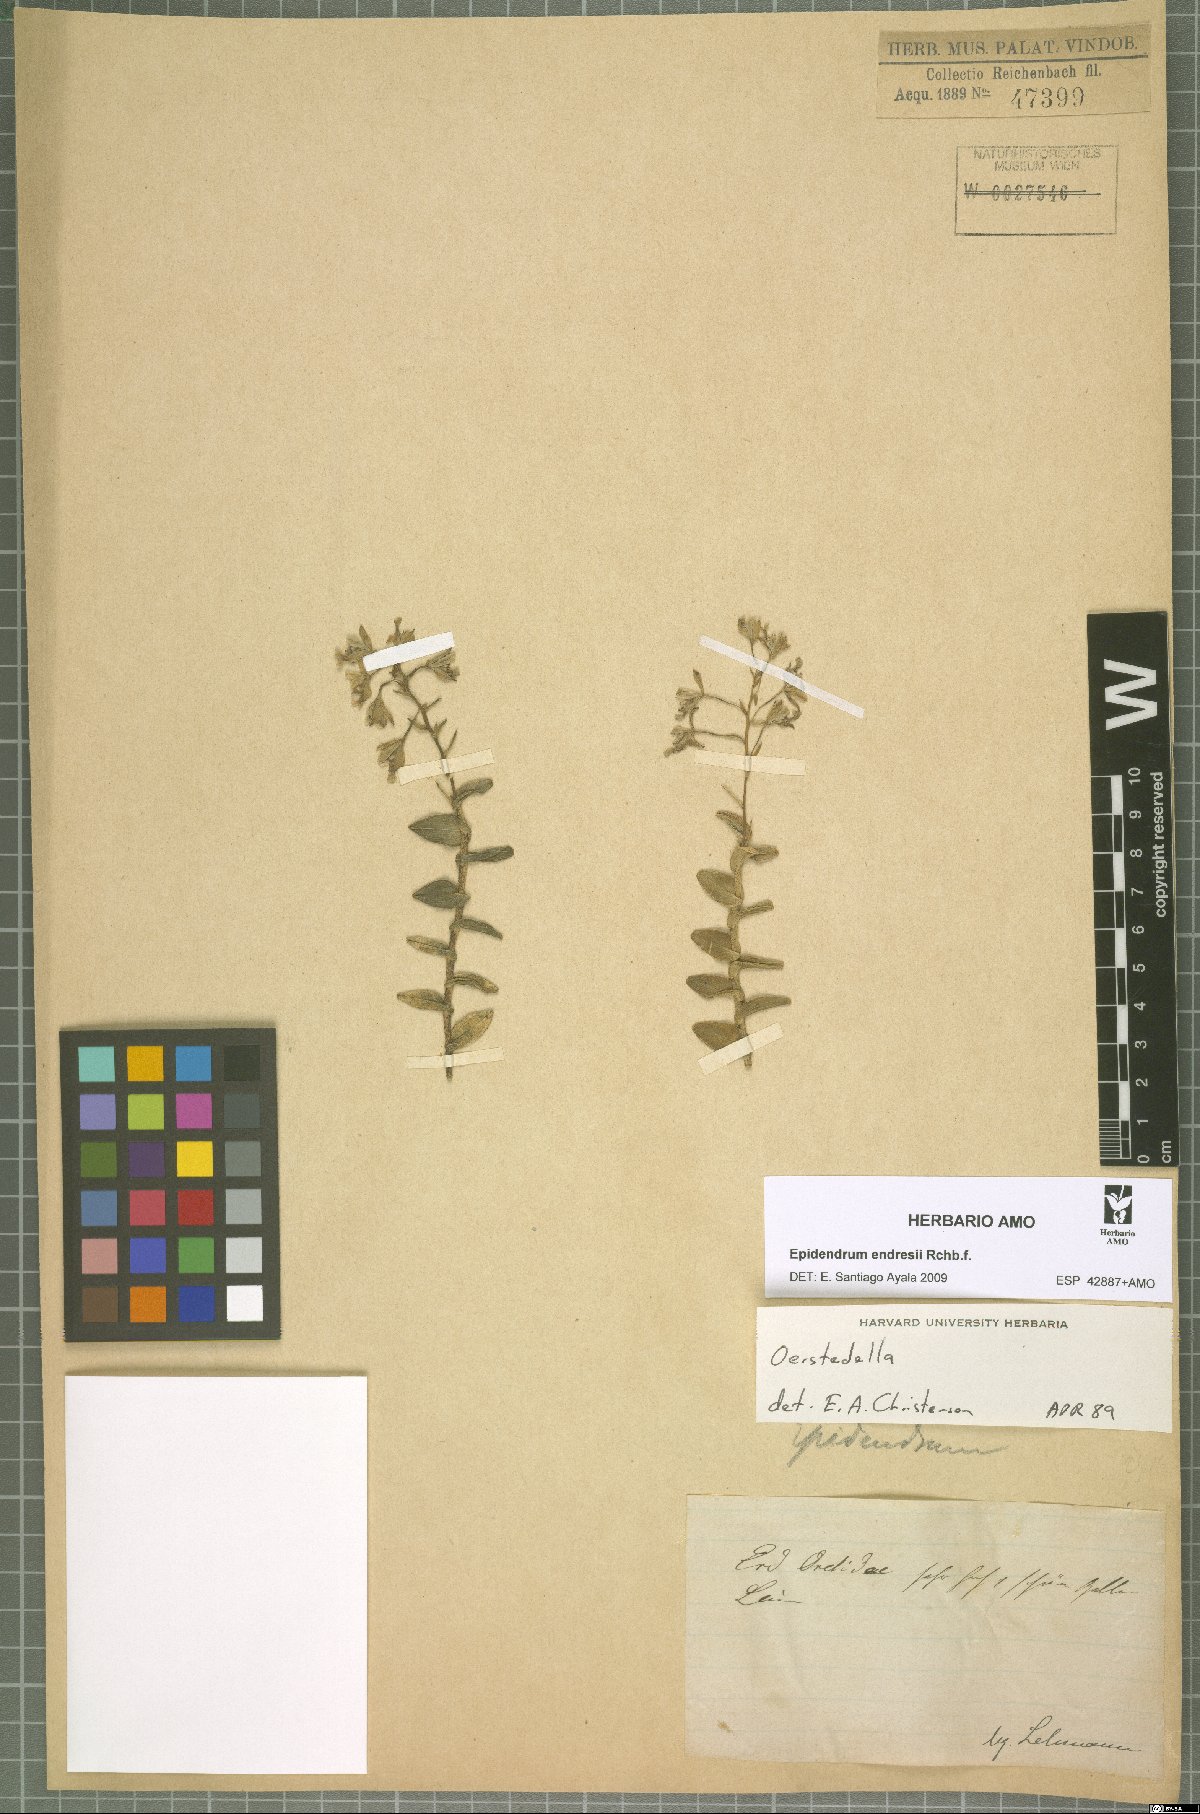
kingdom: Plantae
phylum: Tracheophyta
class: Liliopsida
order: Asparagales
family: Orchidaceae
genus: Epidendrum
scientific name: Epidendrum endresii
